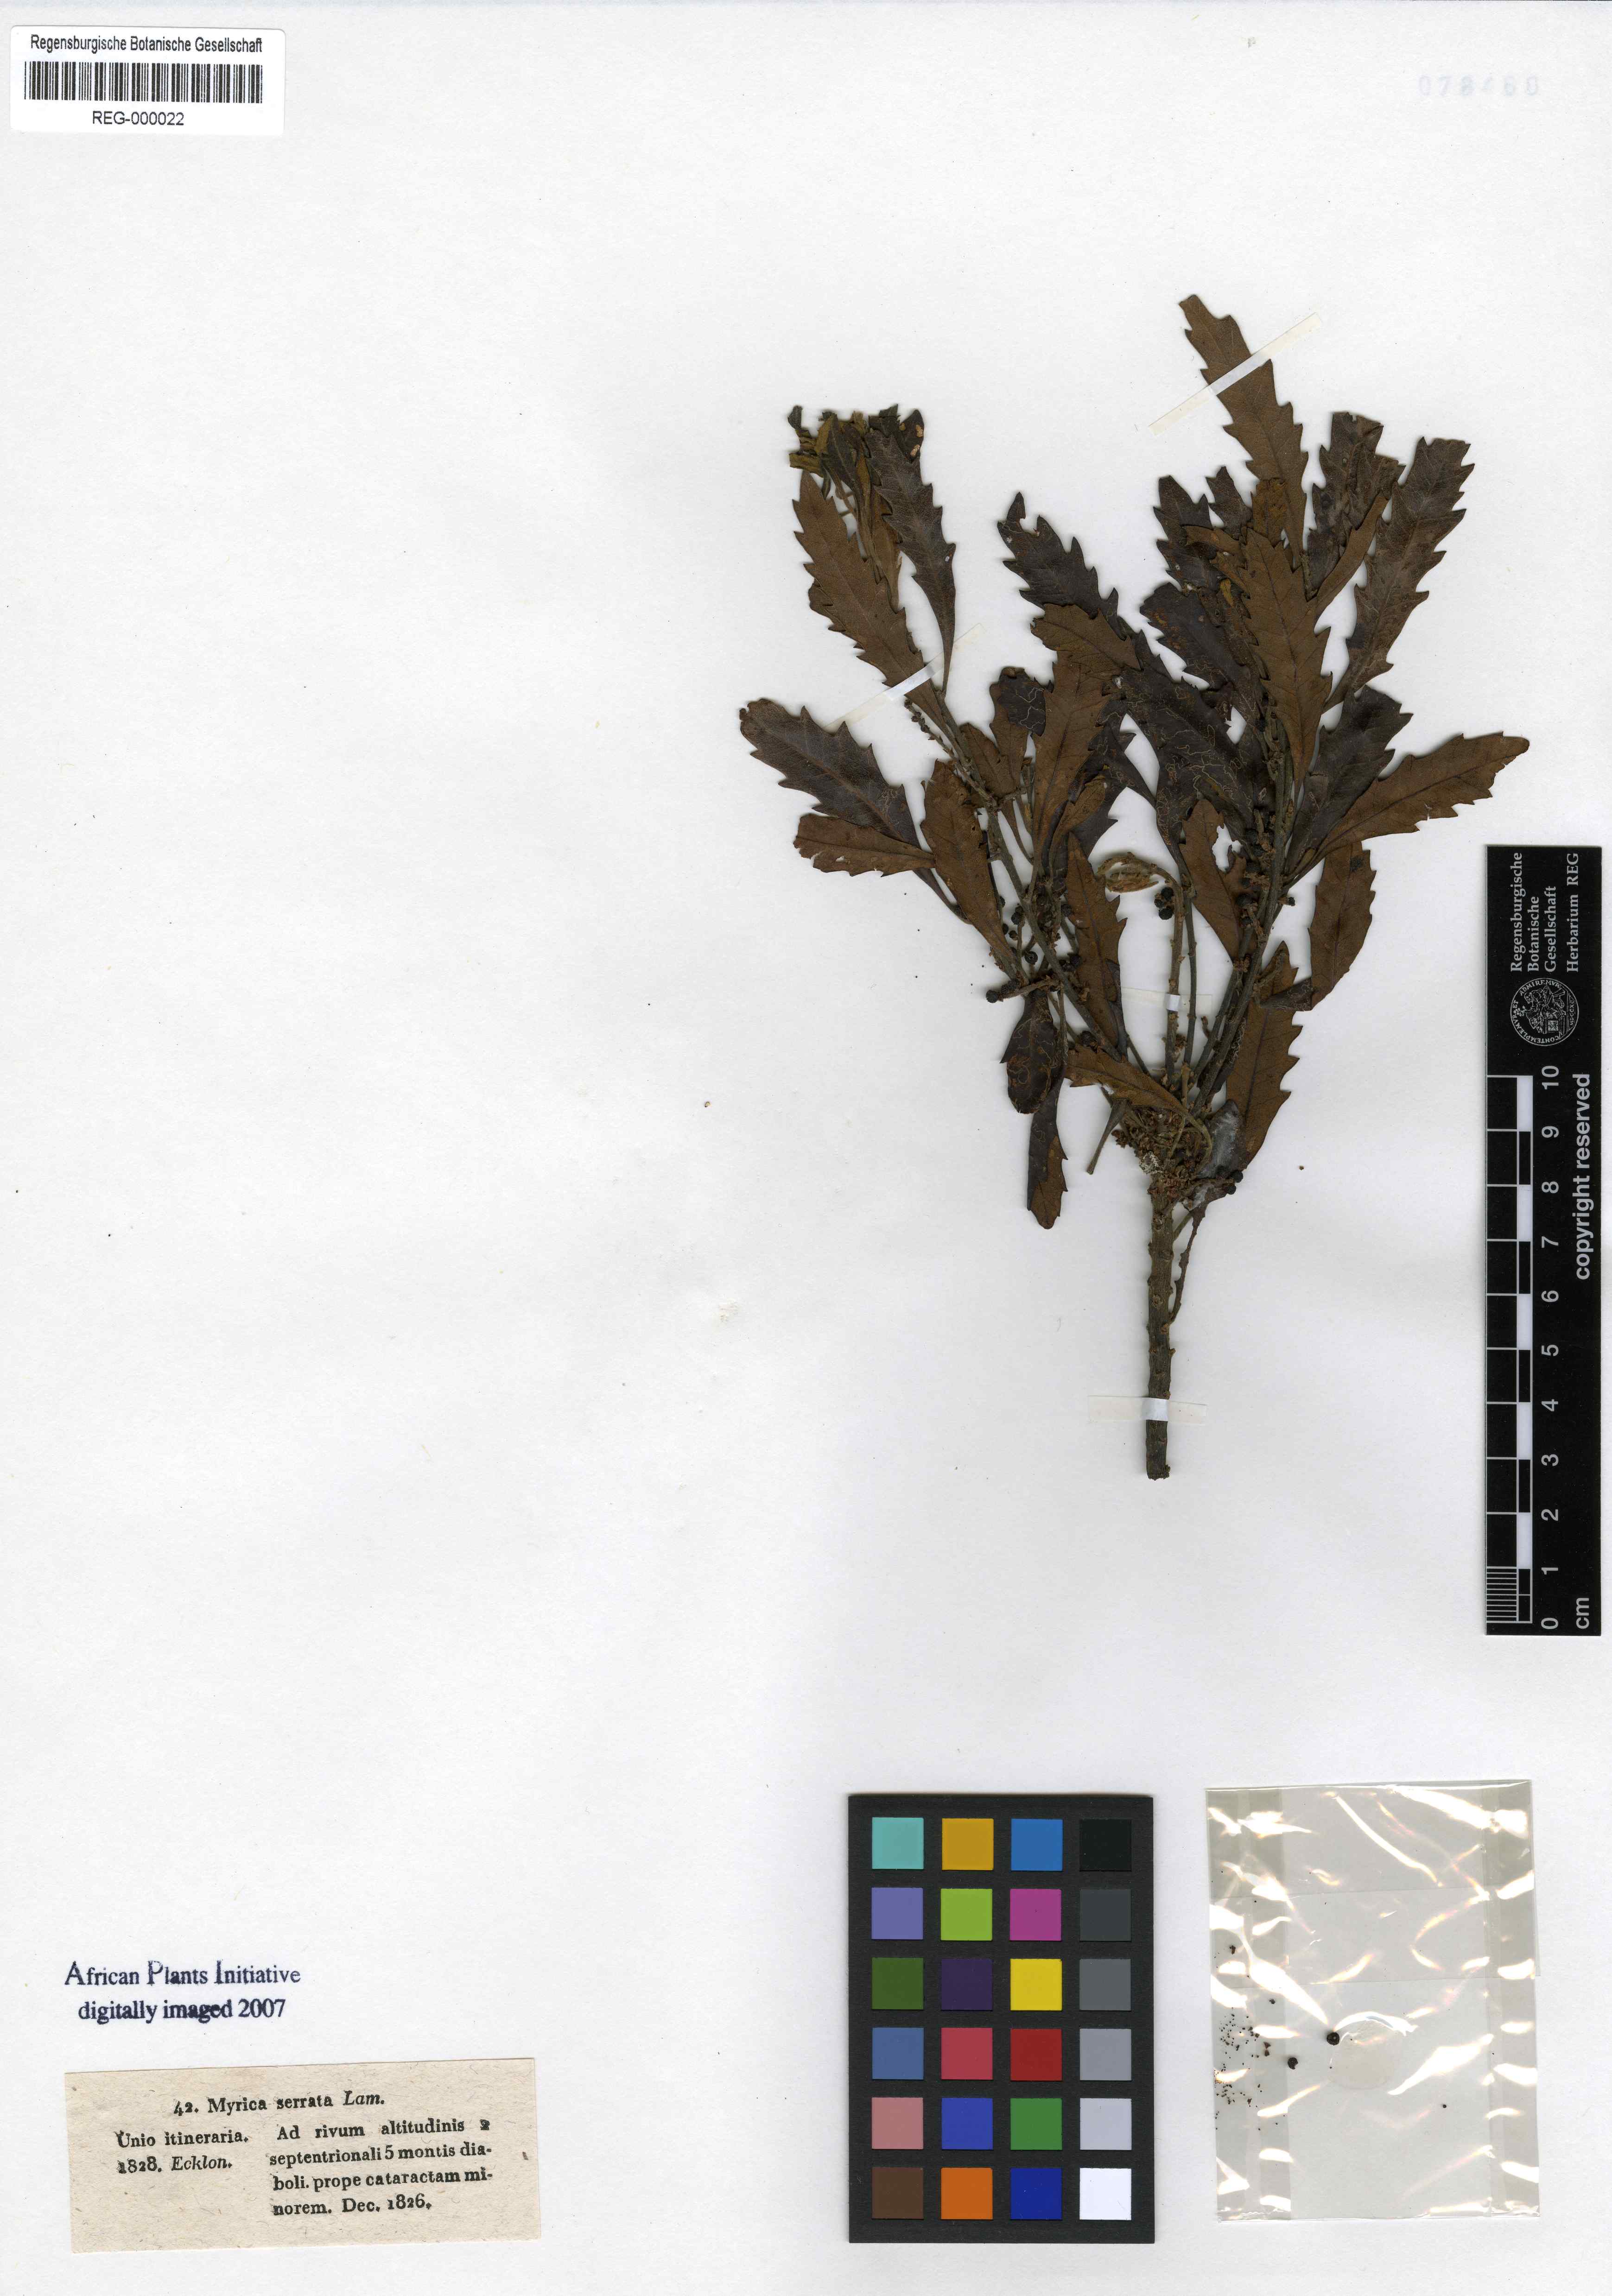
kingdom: Plantae
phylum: Tracheophyta
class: Magnoliopsida
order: Fagales
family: Myricaceae
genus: Morella
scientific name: Morella serrata
